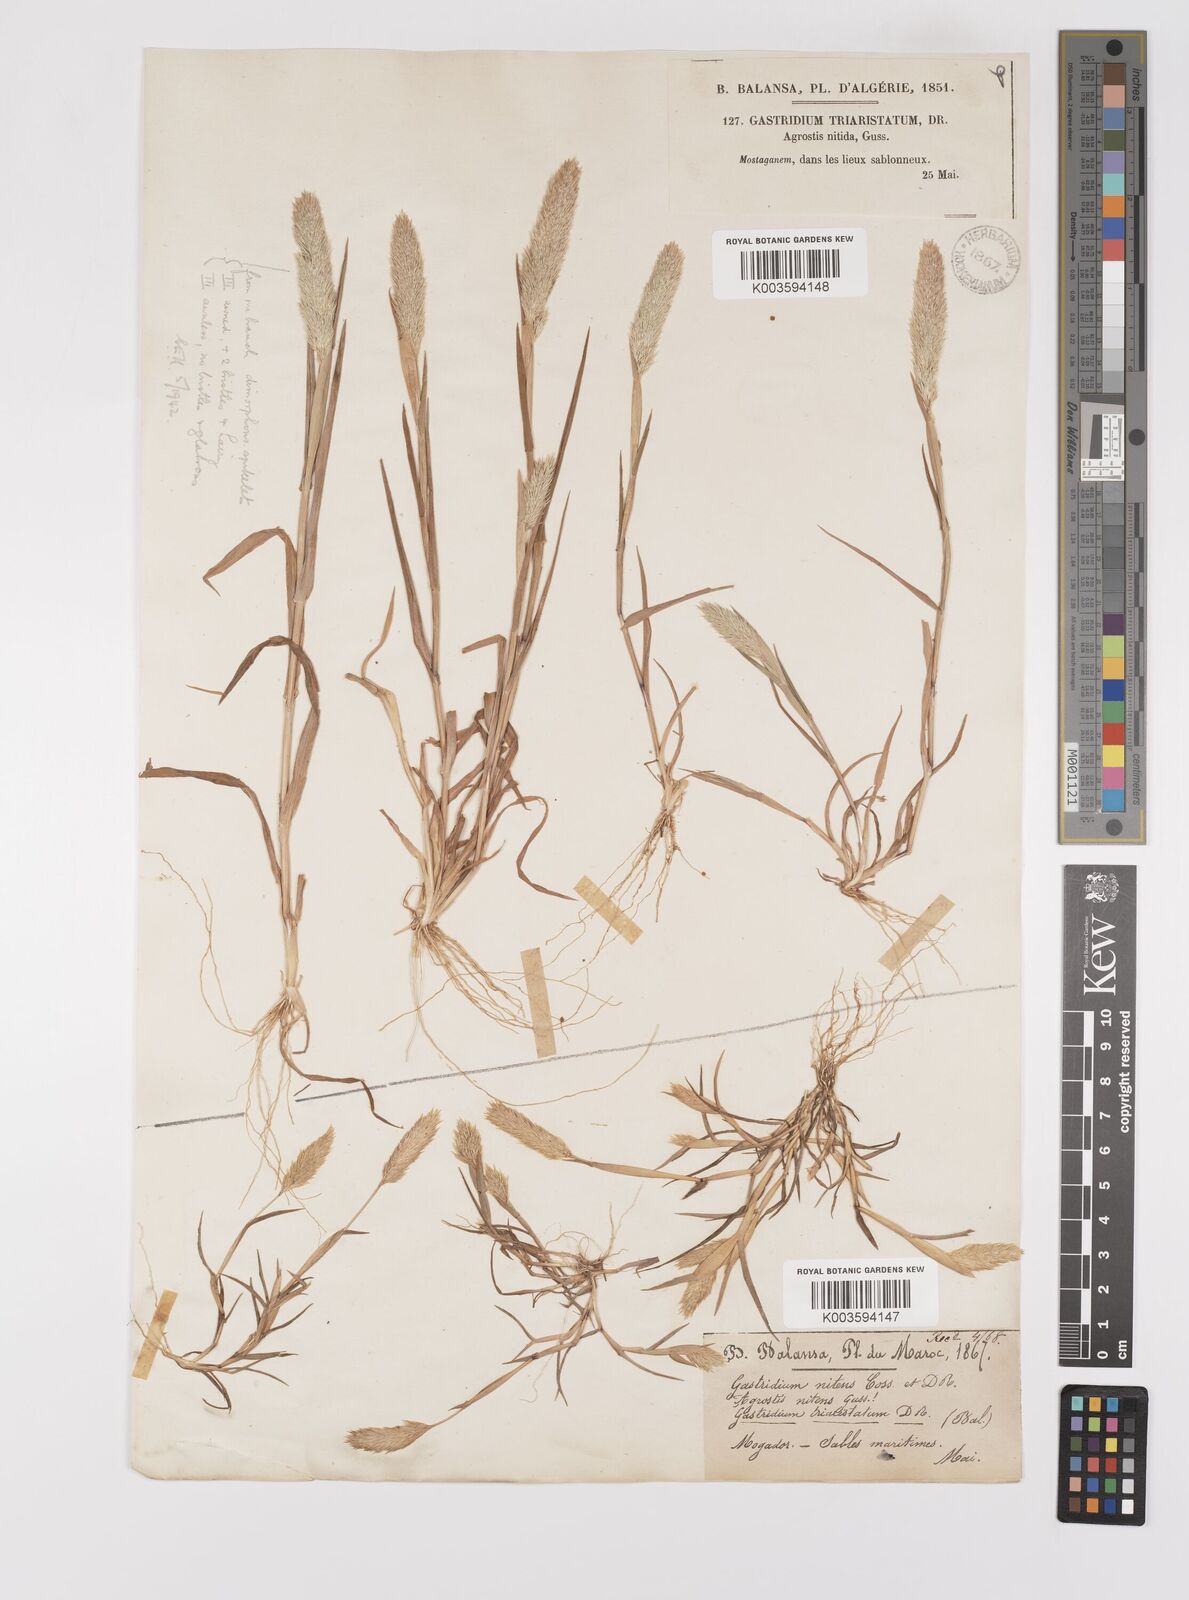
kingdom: Plantae
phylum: Tracheophyta
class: Liliopsida
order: Poales
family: Poaceae
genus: Triplachne
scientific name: Triplachne nitens
